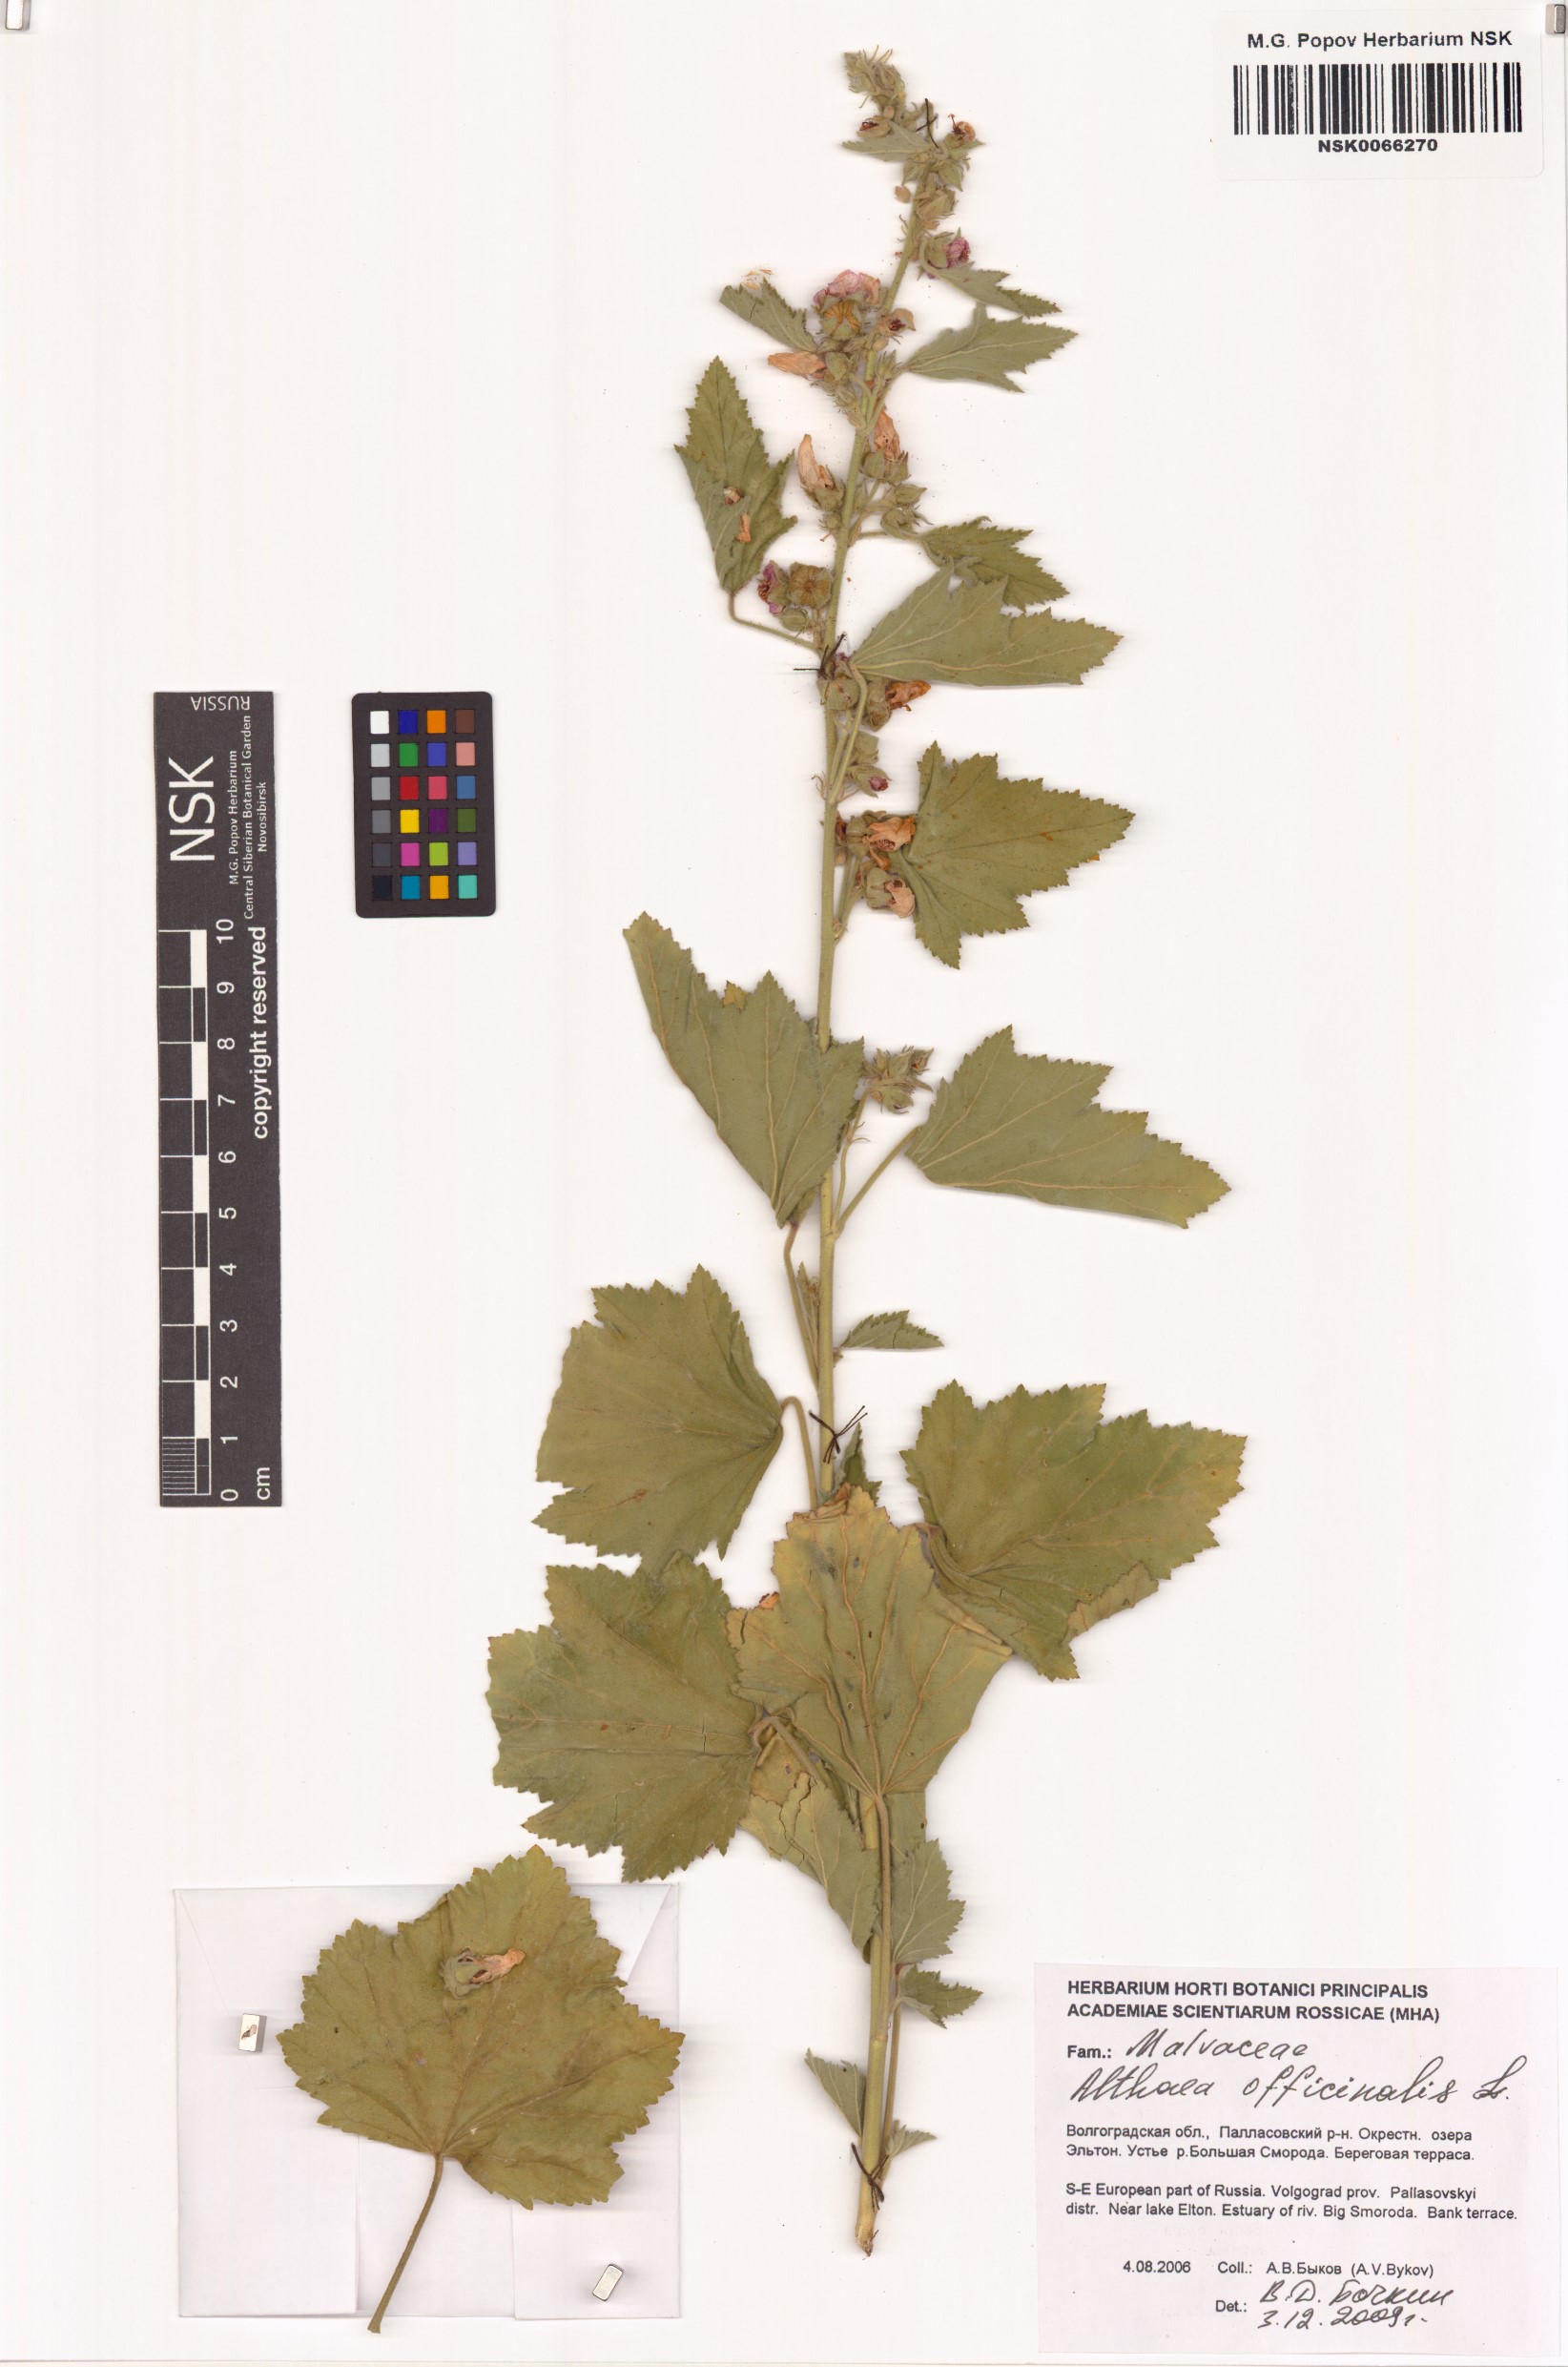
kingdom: Plantae
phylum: Tracheophyta
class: Magnoliopsida
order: Malvales
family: Malvaceae
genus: Althaea
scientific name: Althaea officinalis
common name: Marsh-mallow
